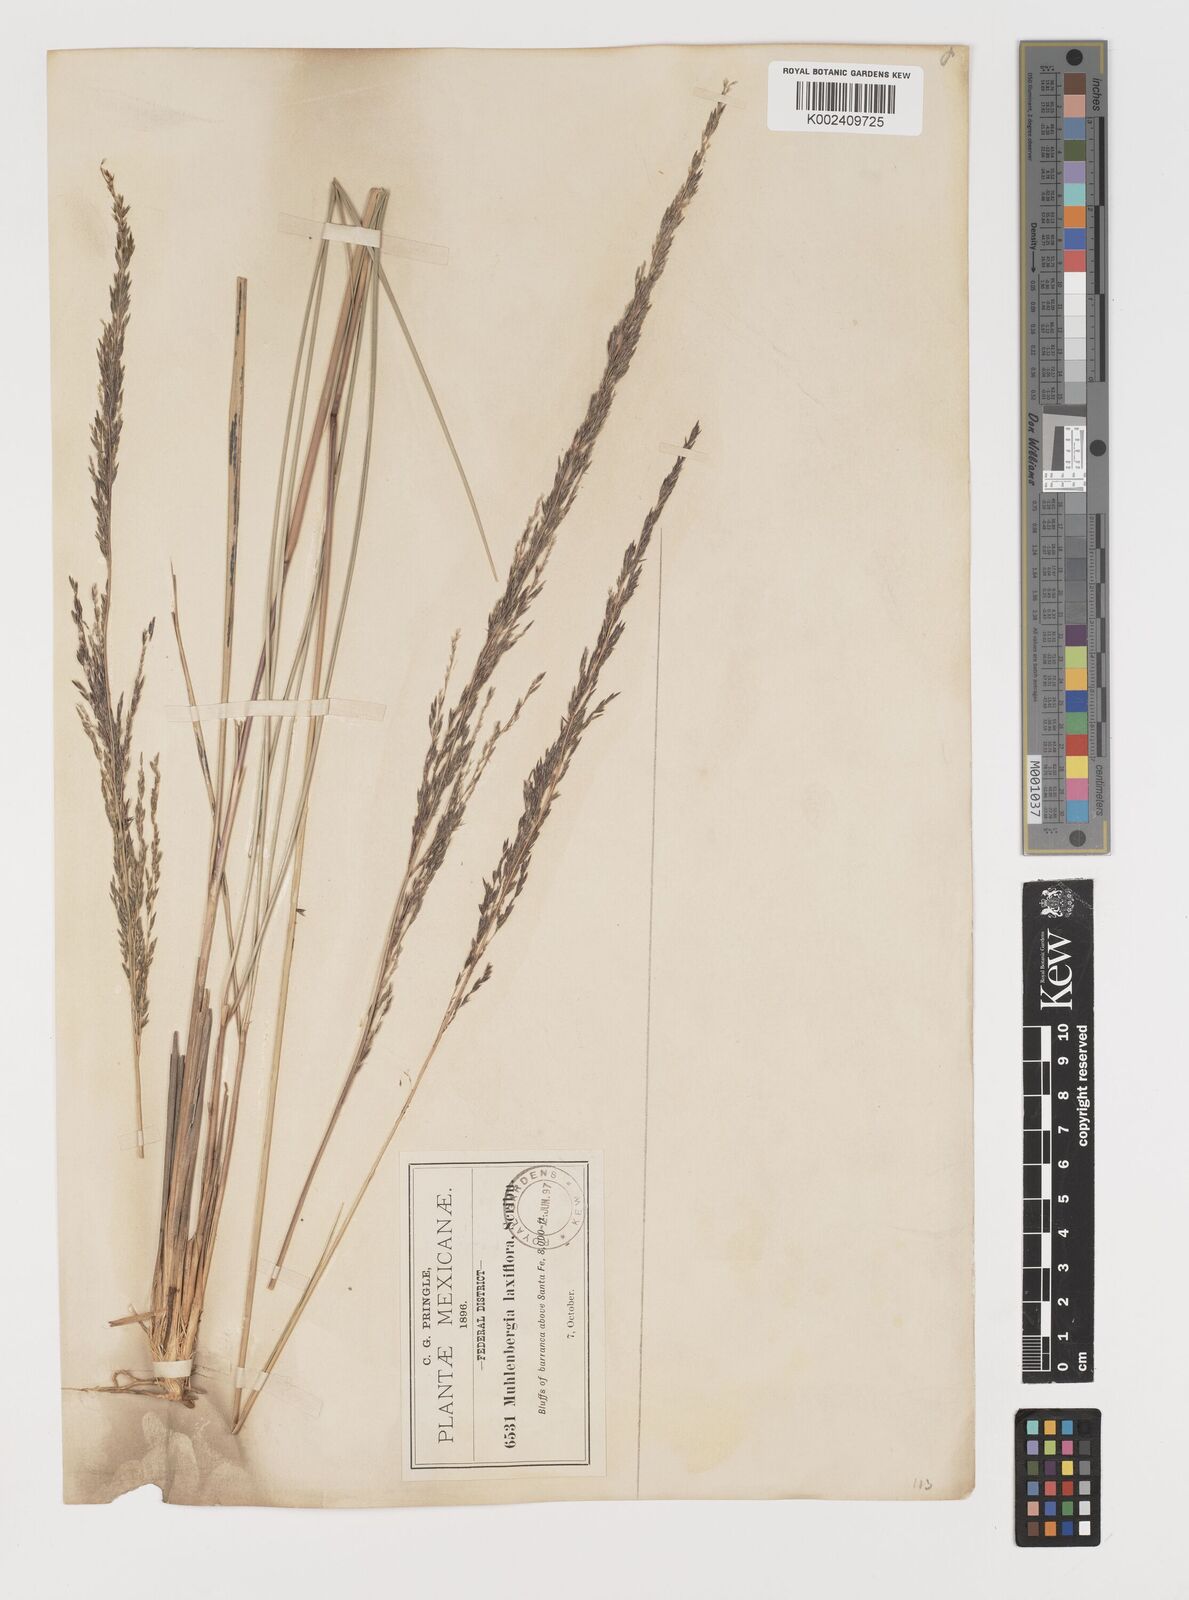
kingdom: Plantae
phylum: Tracheophyta
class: Liliopsida
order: Poales
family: Poaceae
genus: Muhlenbergia
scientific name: Muhlenbergia rigida
